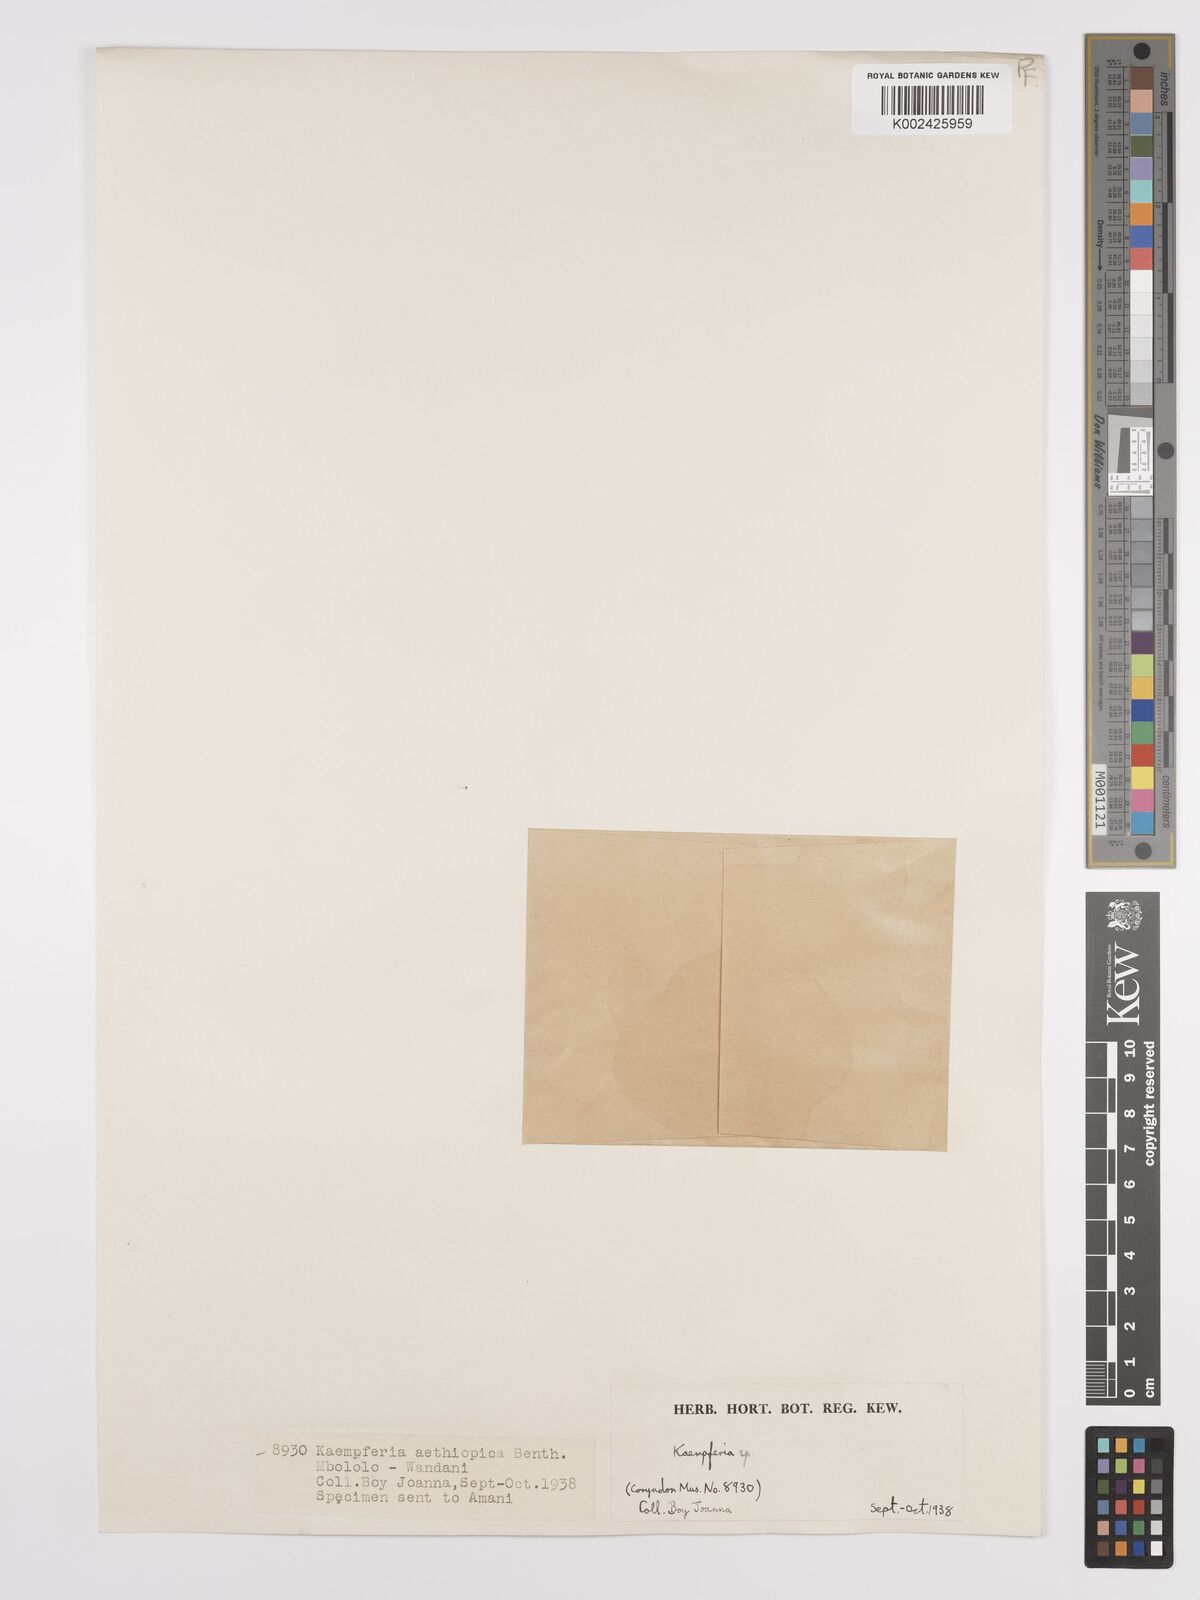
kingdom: Plantae
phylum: Tracheophyta
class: Liliopsida
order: Zingiberales
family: Zingiberaceae
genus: Siphonochilus
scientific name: Siphonochilus
